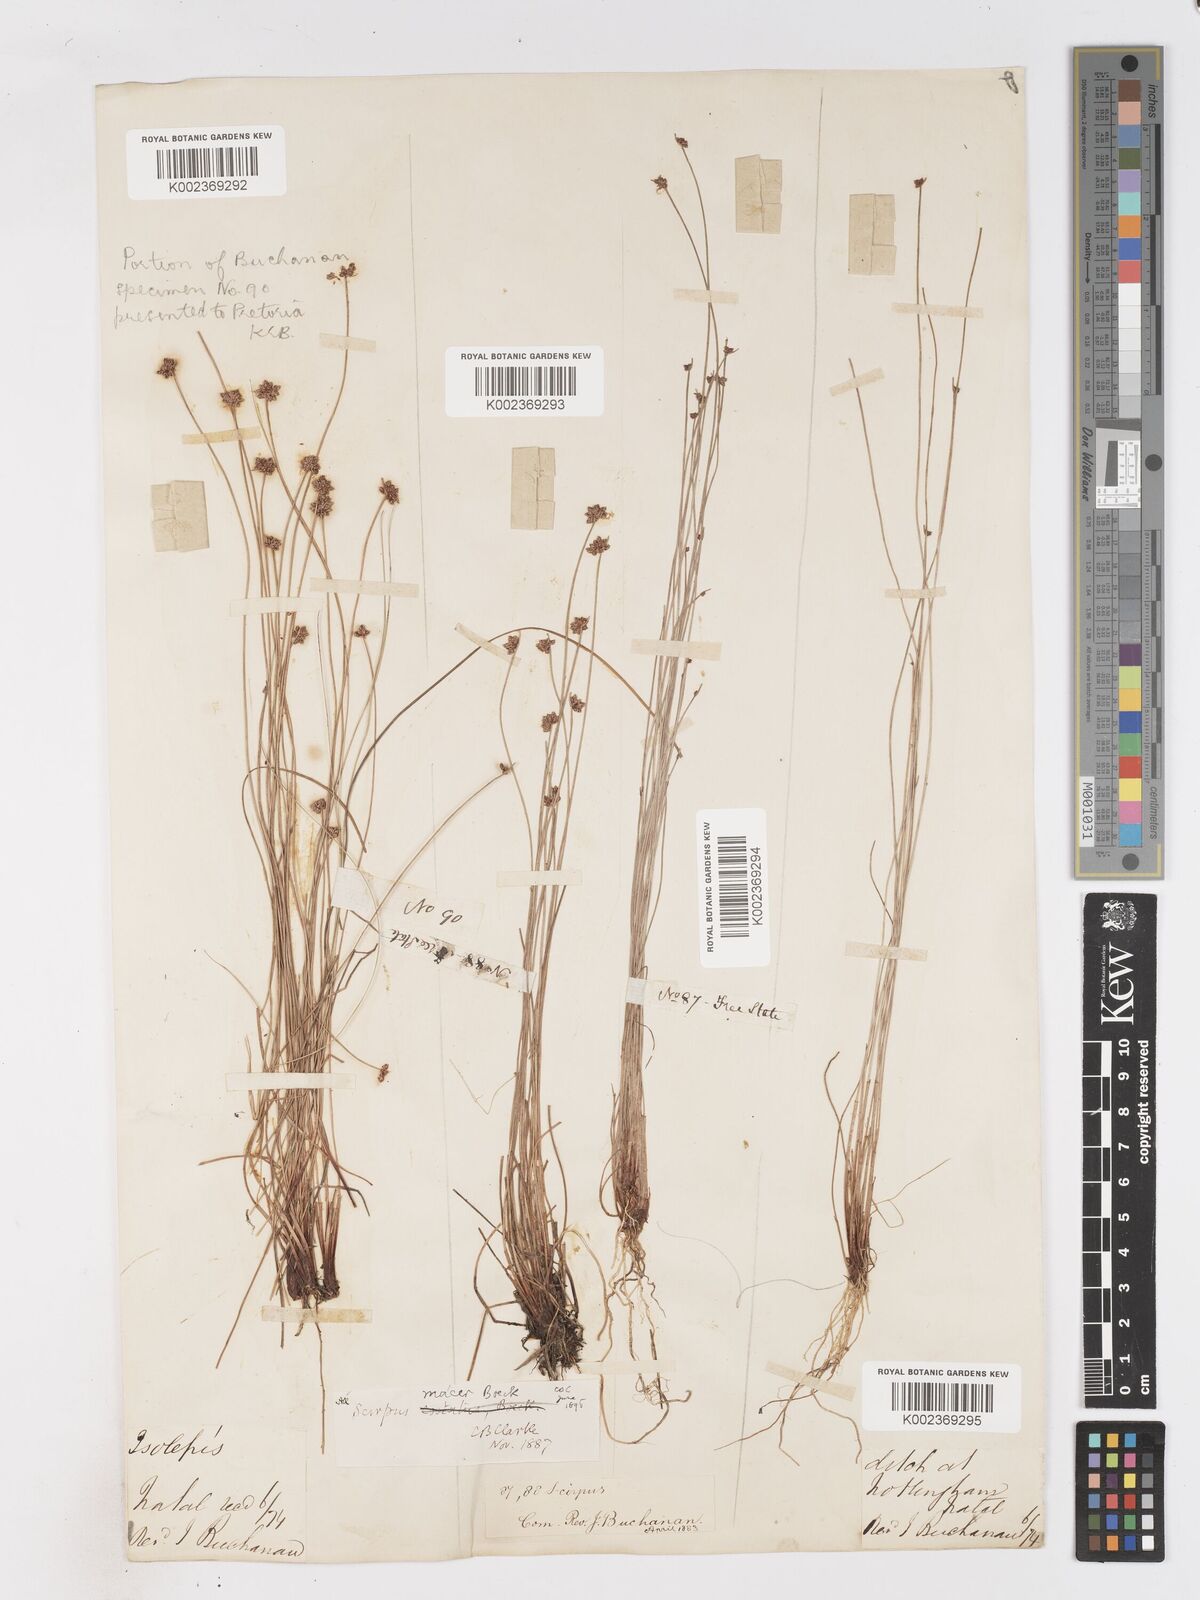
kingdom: Plantae
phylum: Tracheophyta
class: Liliopsida
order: Poales
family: Cyperaceae
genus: Isolepis
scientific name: Isolepis costata
